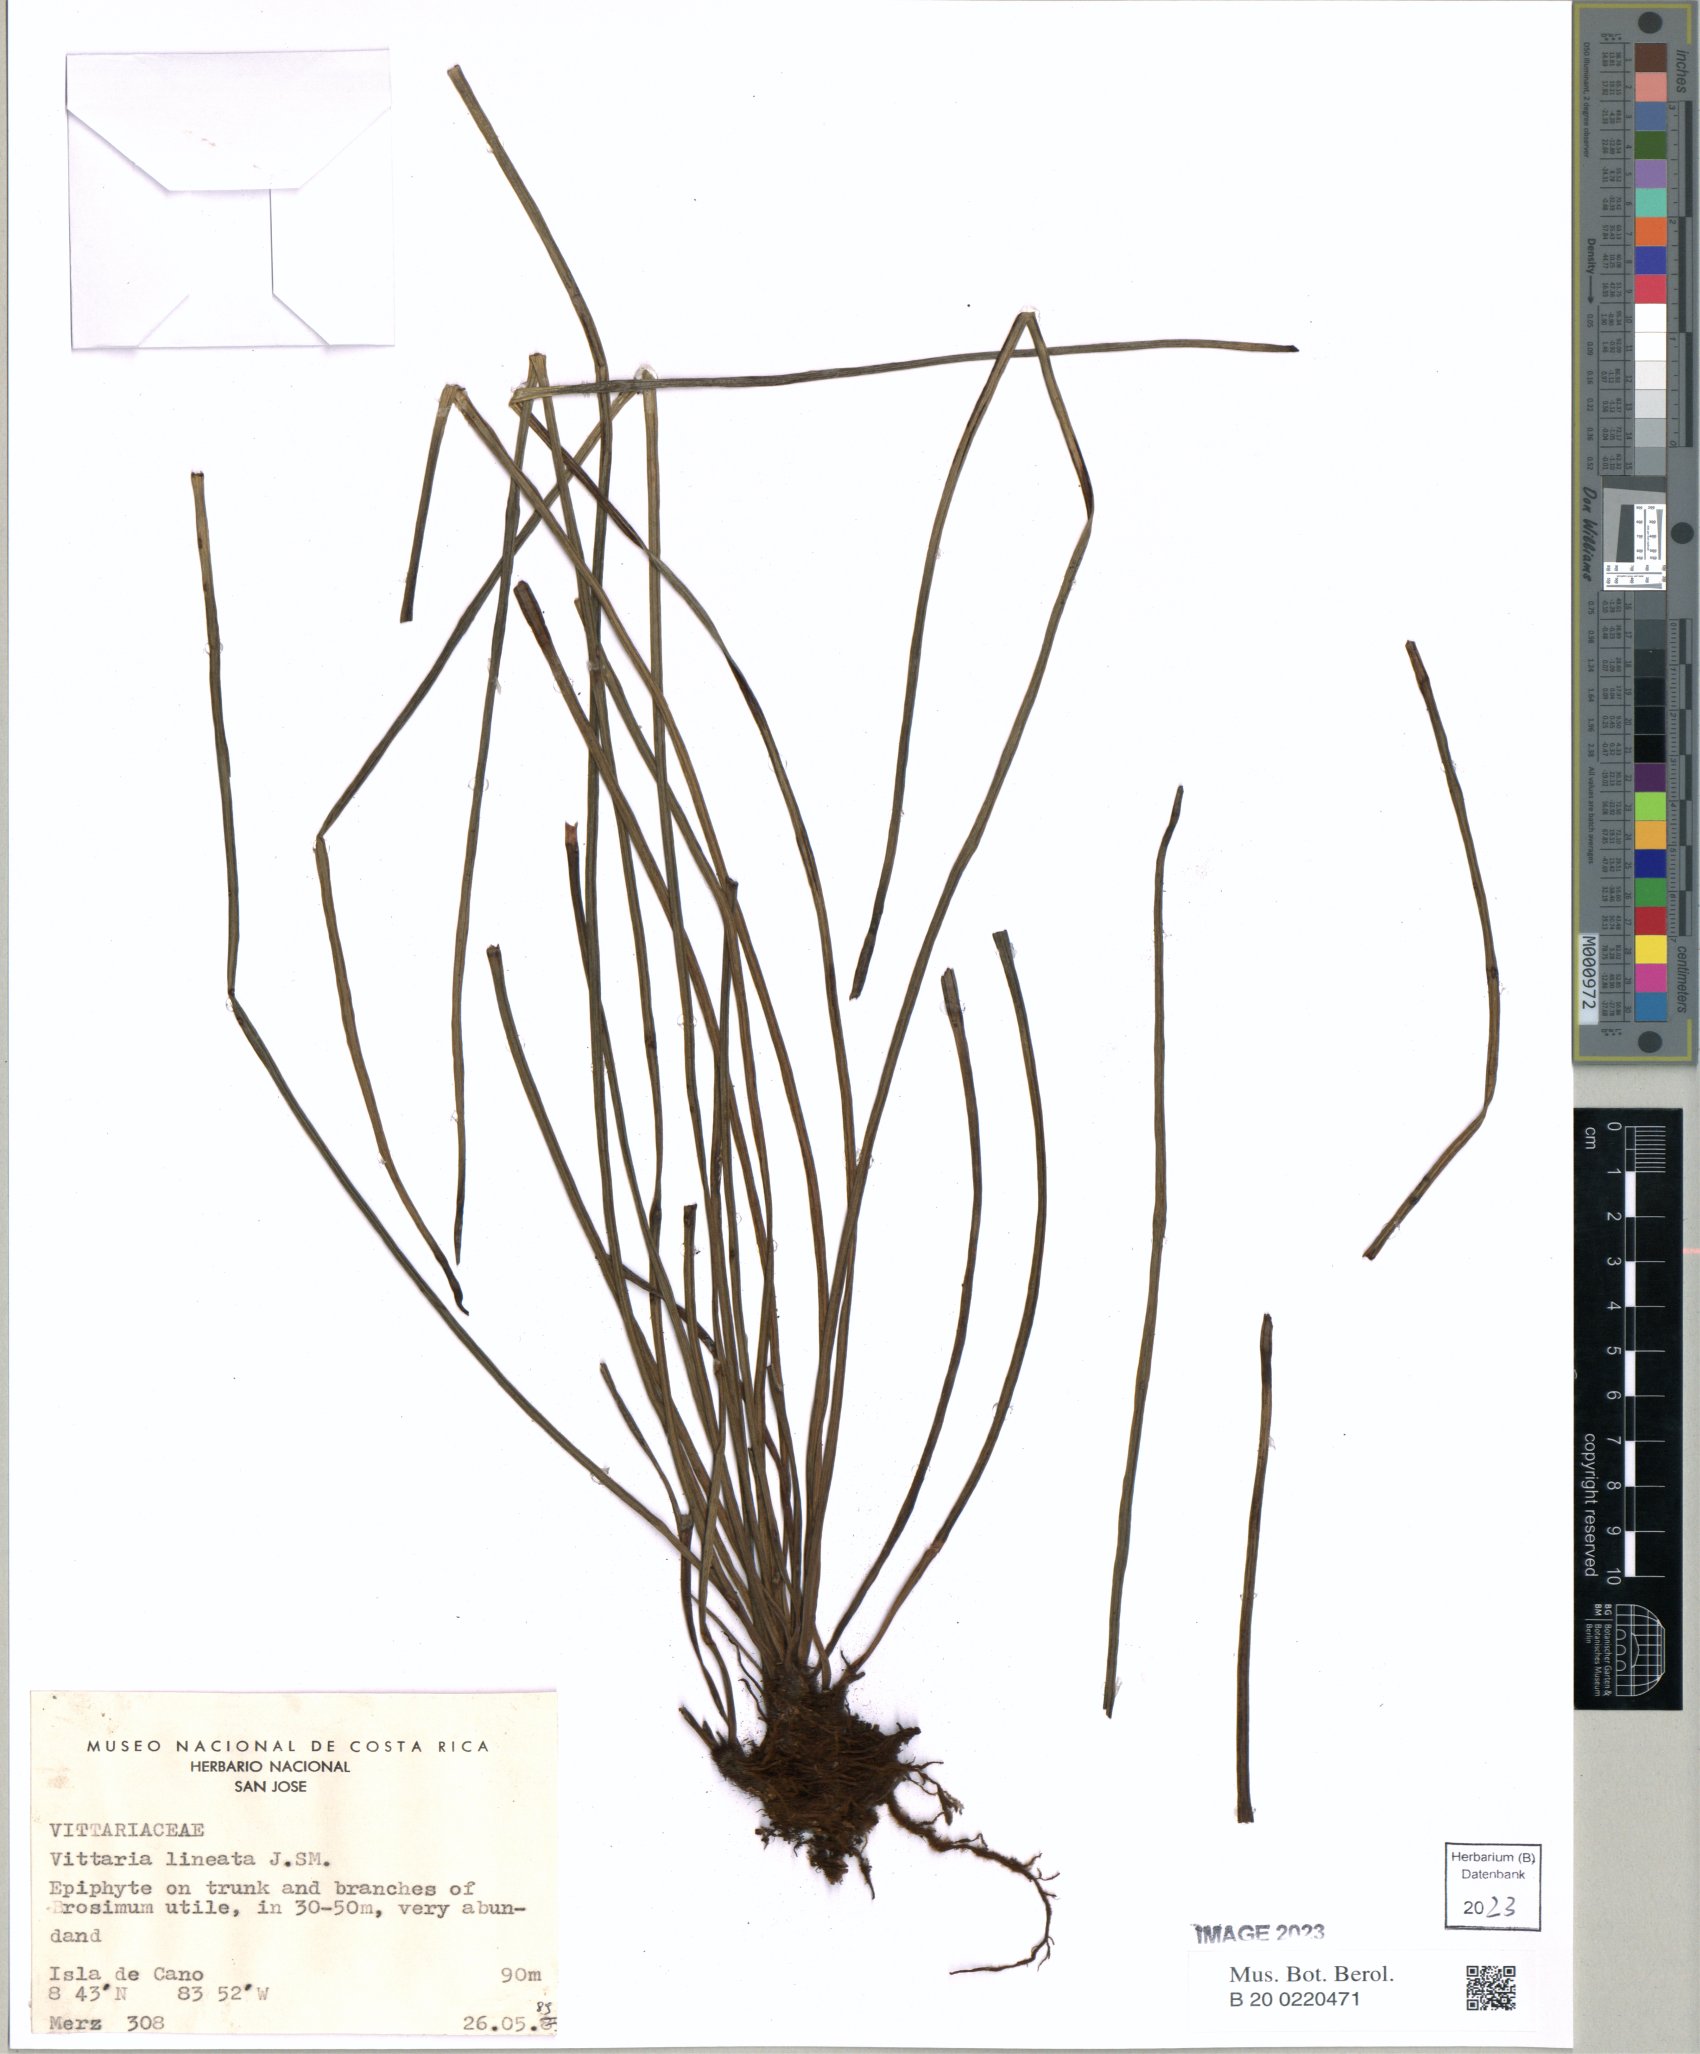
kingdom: Plantae
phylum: Tracheophyta
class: Polypodiopsida
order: Polypodiales
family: Pteridaceae
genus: Vittaria
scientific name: Vittaria lineata
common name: Shoestring fern
